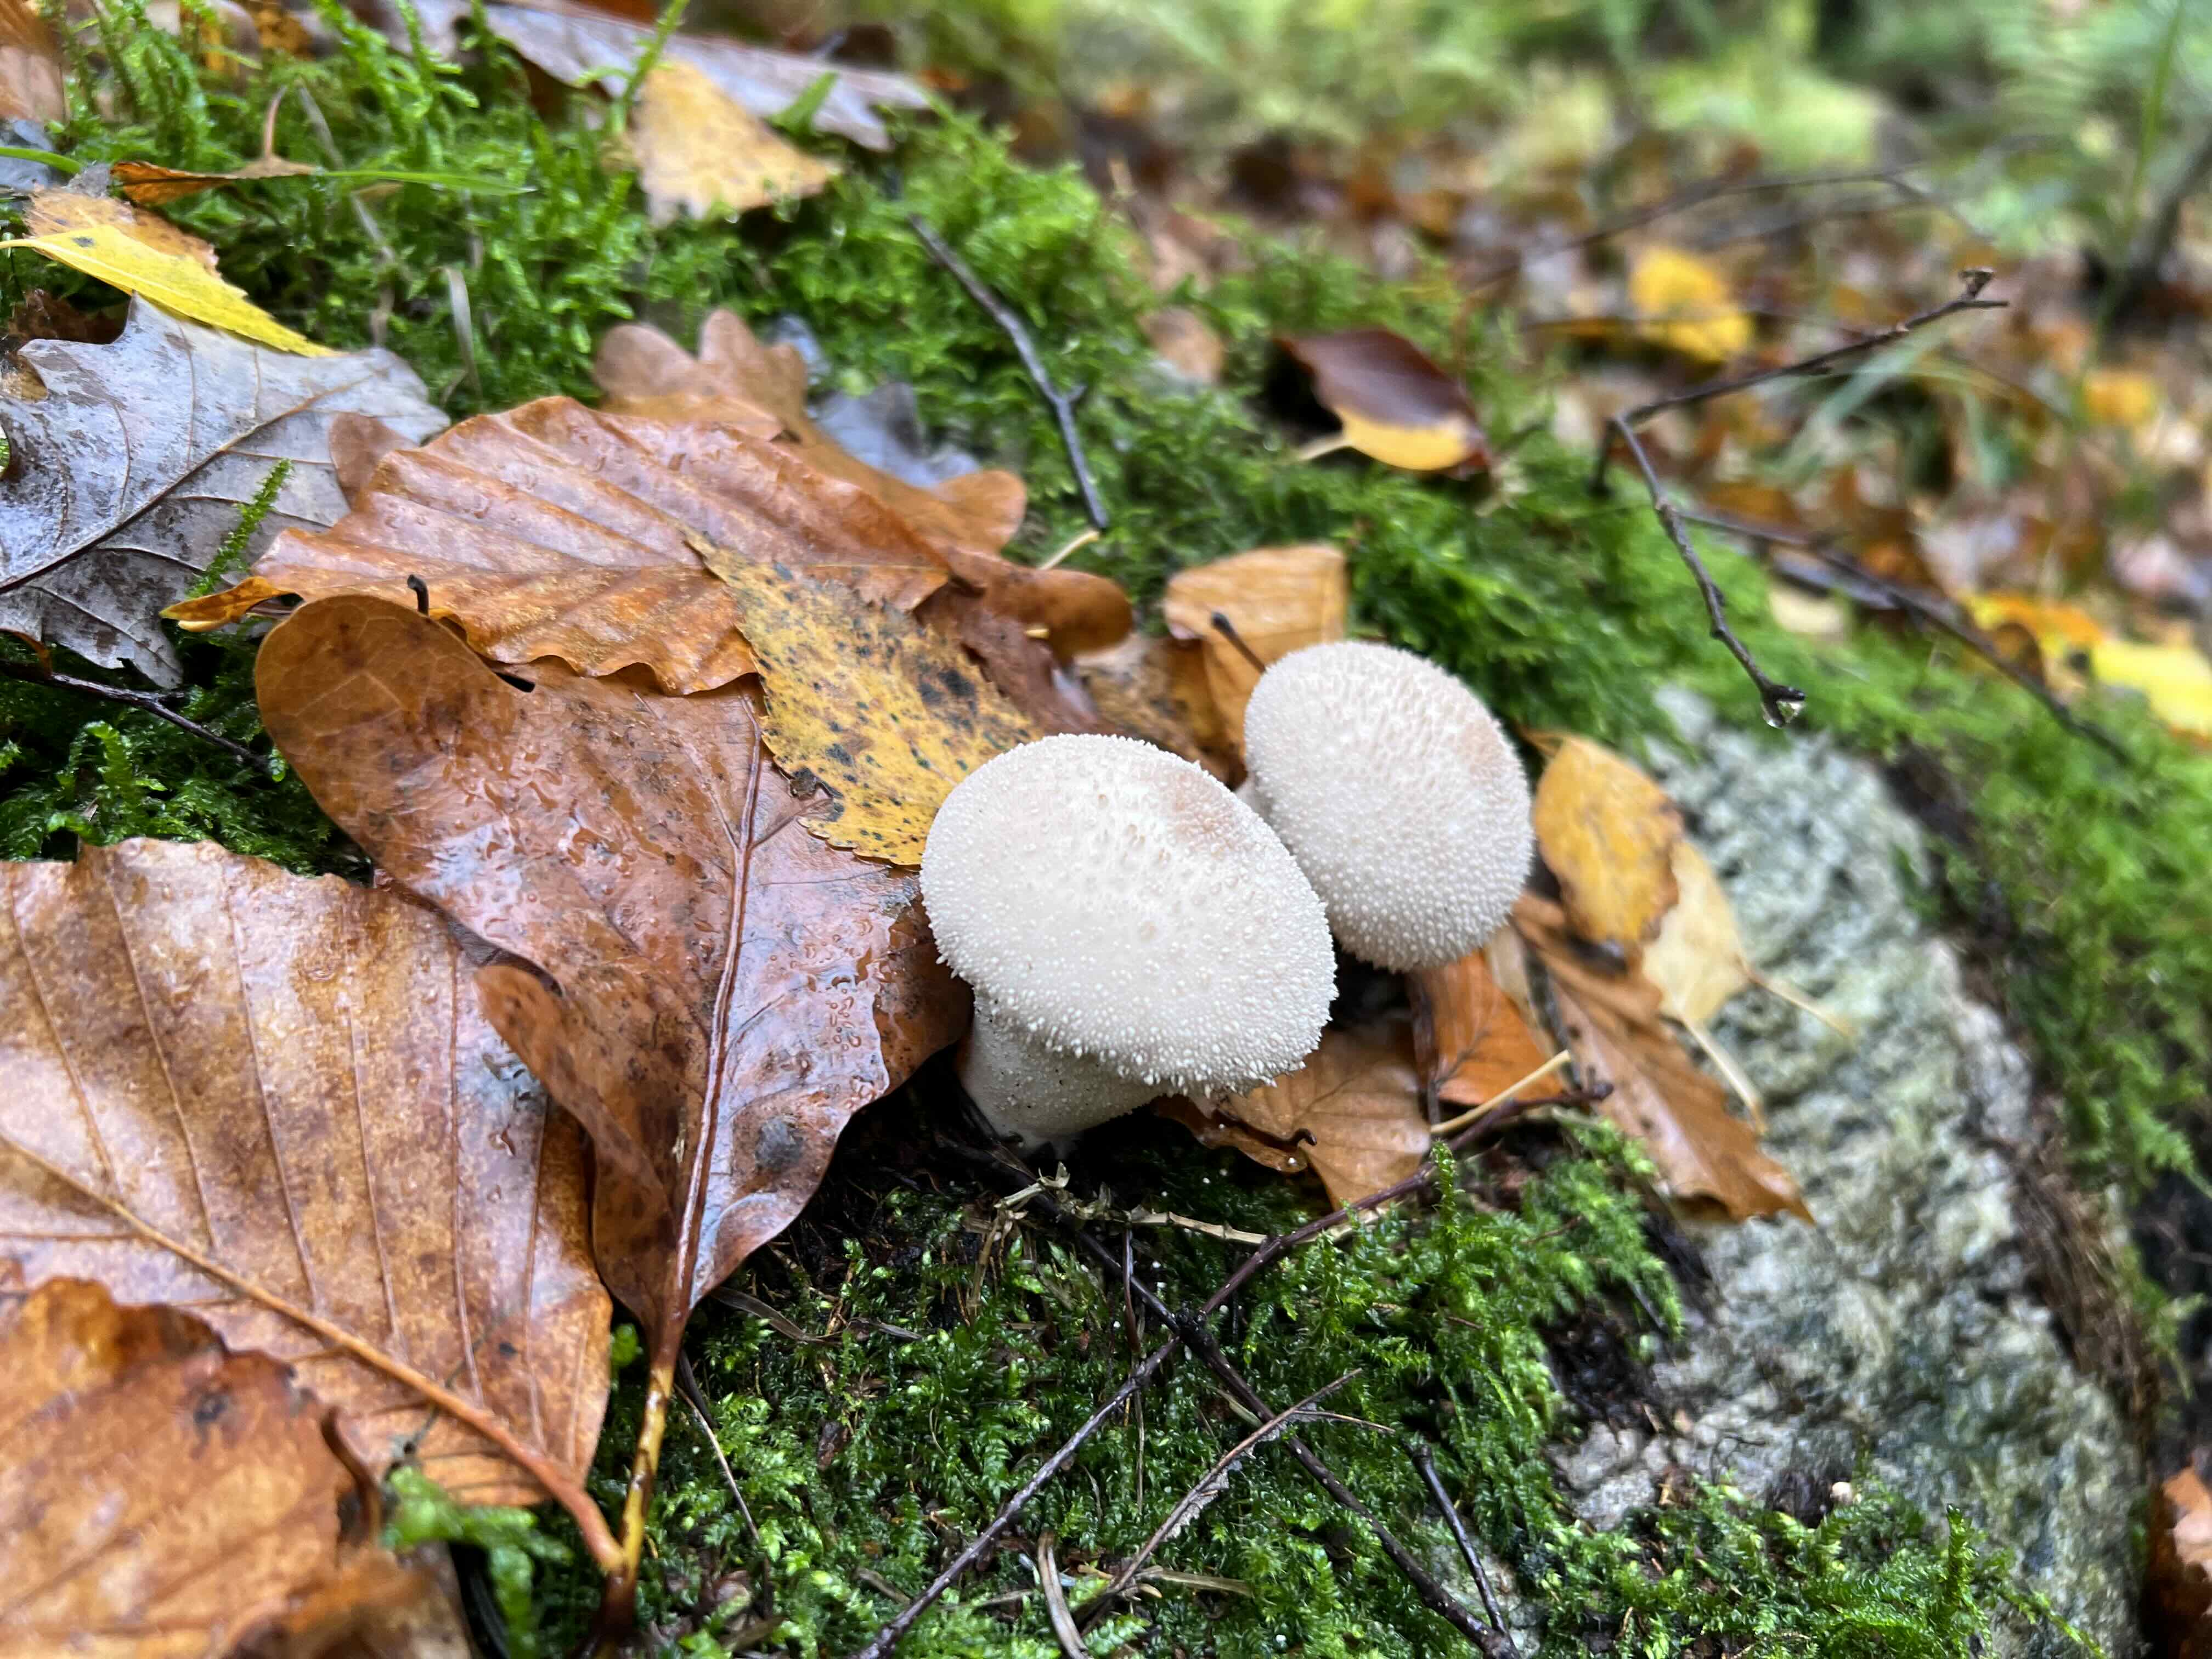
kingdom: Fungi
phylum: Basidiomycota
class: Agaricomycetes
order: Agaricales
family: Lycoperdaceae
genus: Lycoperdon
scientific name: Lycoperdon perlatum
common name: krystal-støvbold
